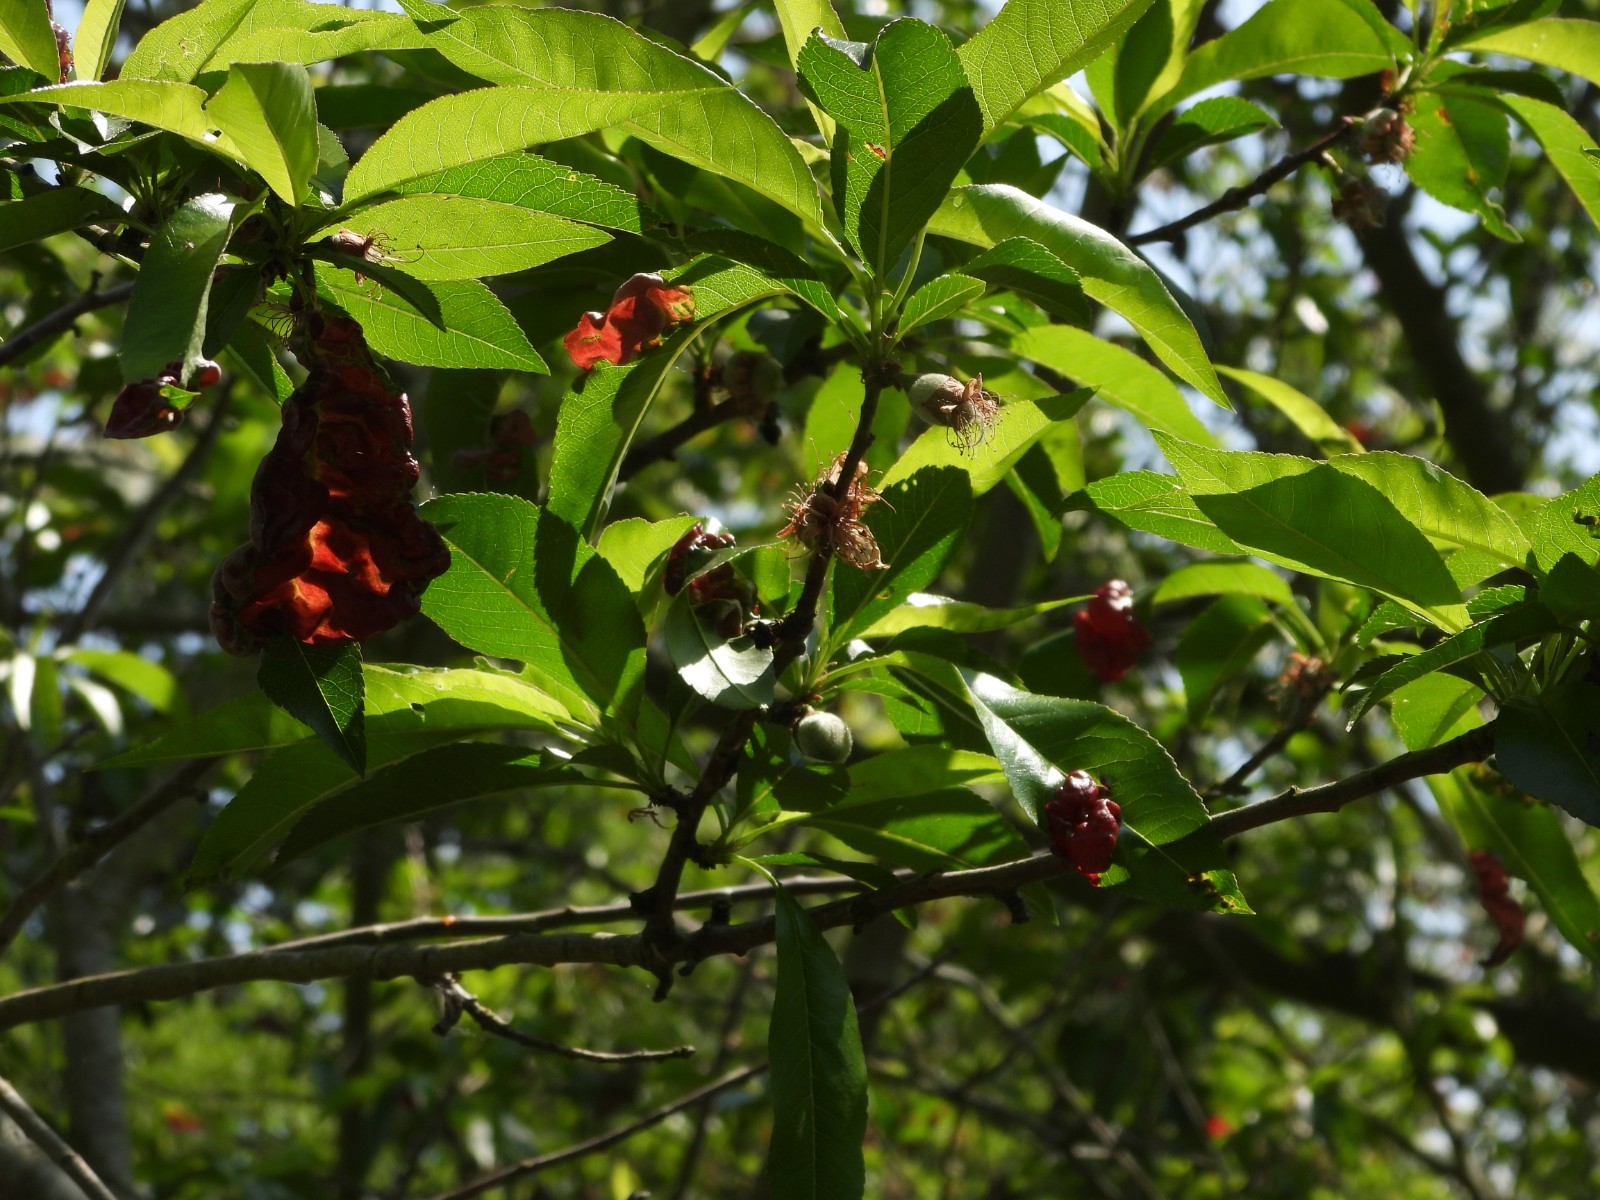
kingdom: Fungi
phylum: Ascomycota
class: Taphrinomycetes
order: Taphrinales
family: Taphrinaceae
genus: Taphrina
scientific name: Taphrina deformans
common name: Peach leaf curl
